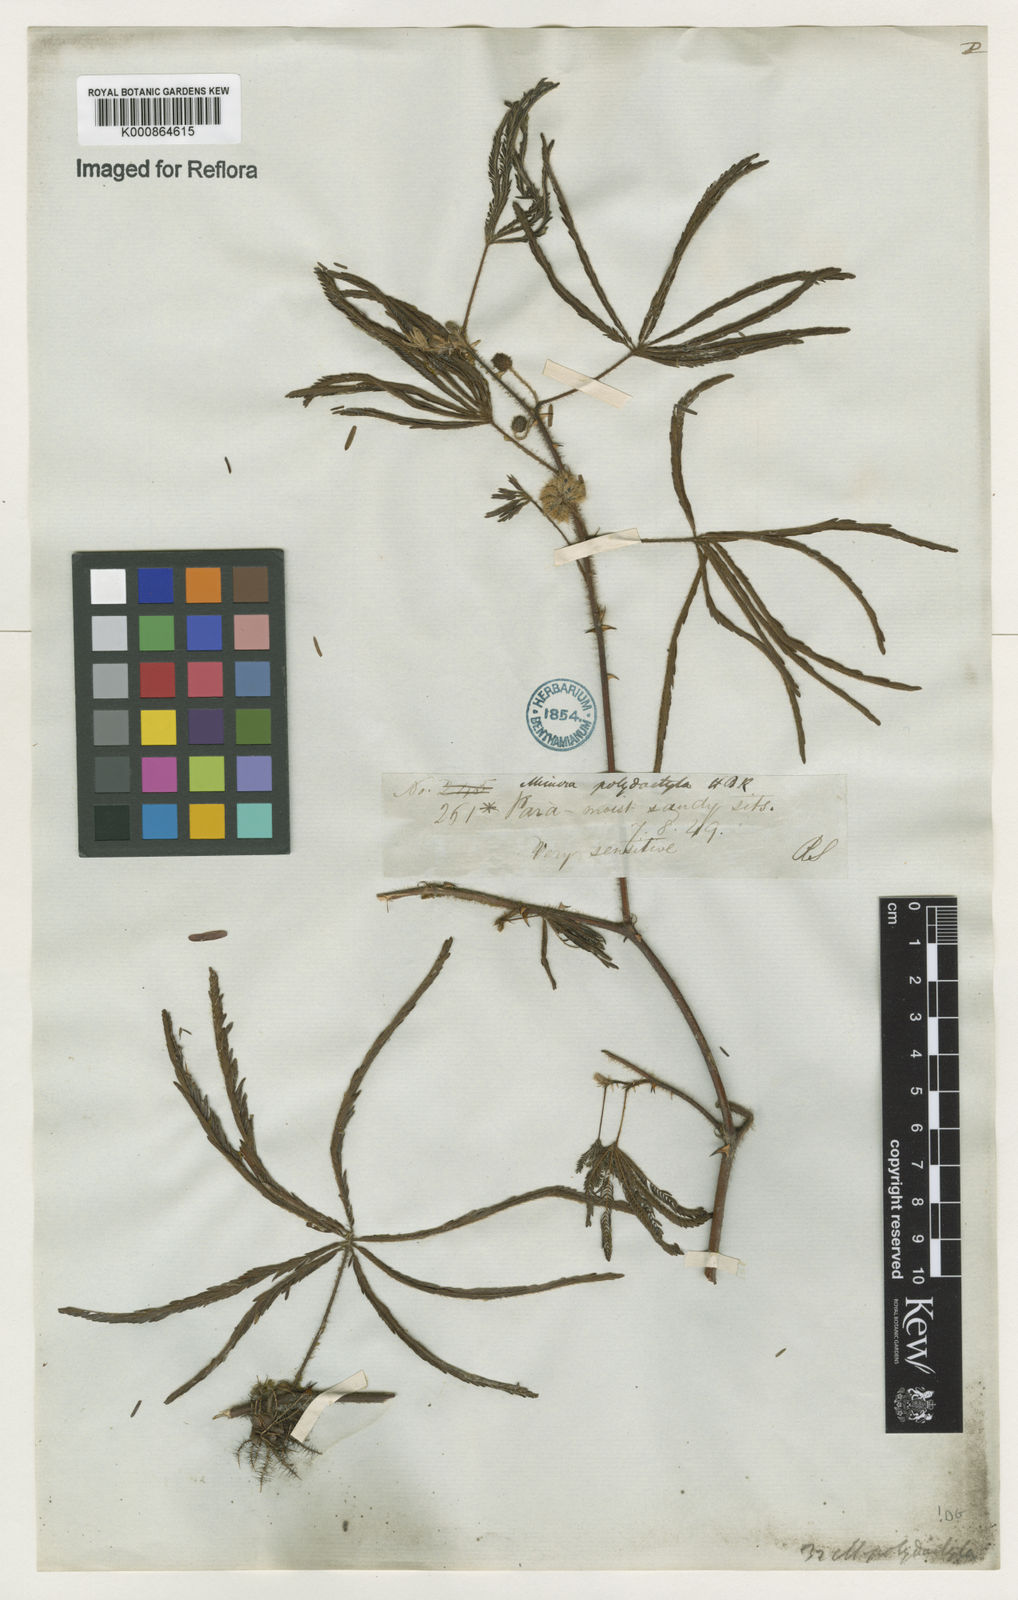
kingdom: Plantae
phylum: Tracheophyta
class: Magnoliopsida
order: Fabales
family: Fabaceae
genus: Mimosa
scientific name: Mimosa polydactyla
